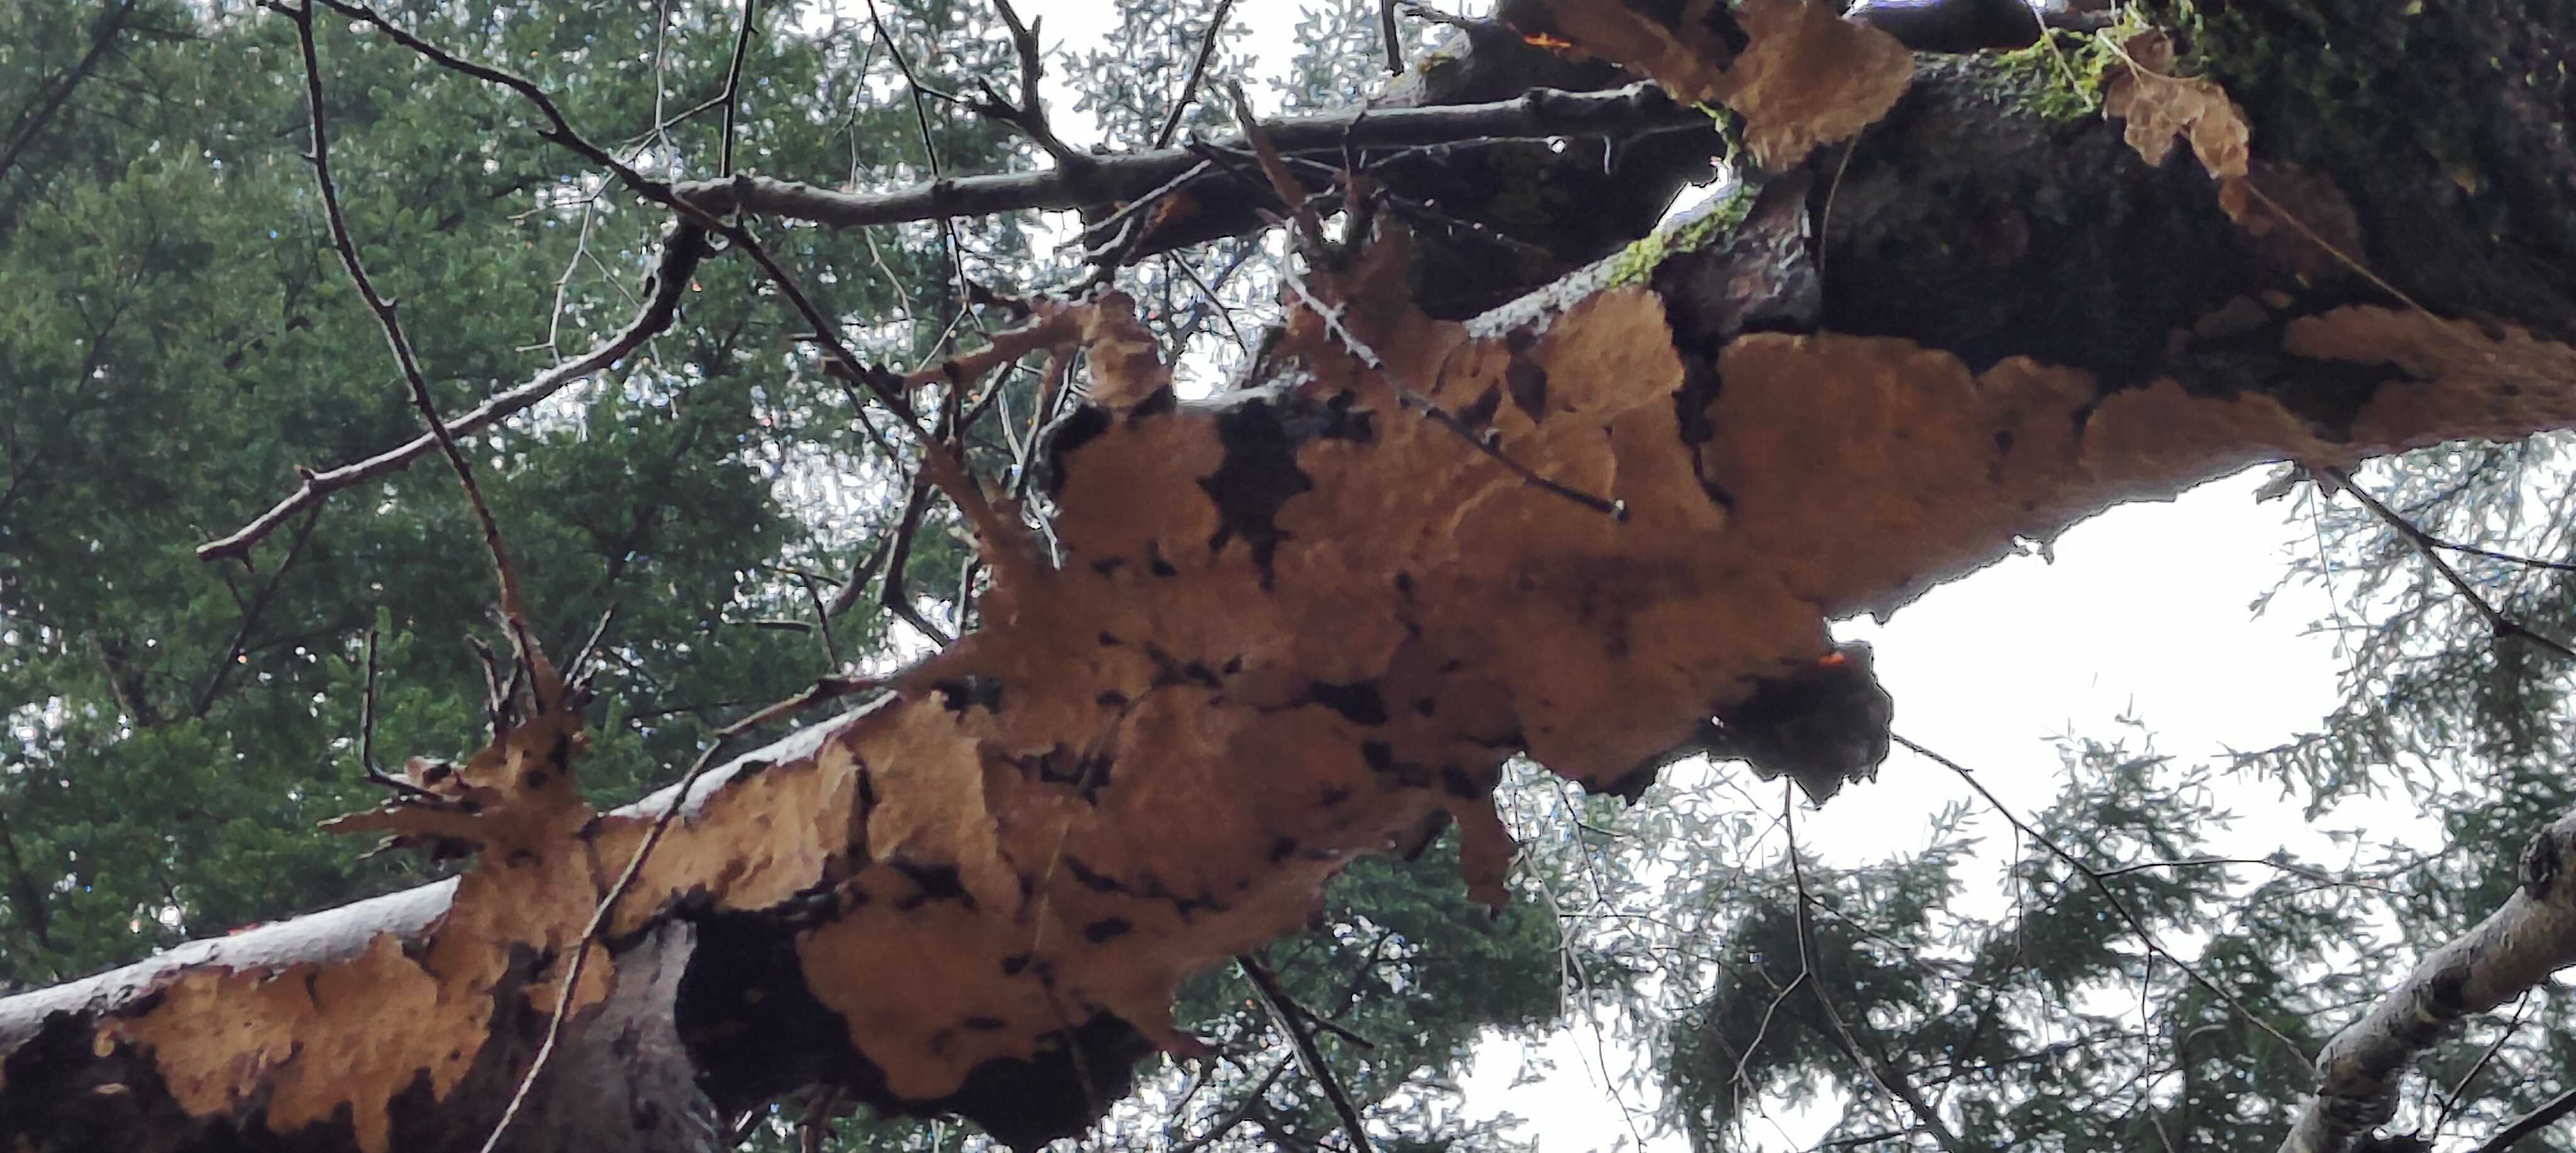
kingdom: Fungi
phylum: Basidiomycota
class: Agaricomycetes
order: Russulales
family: Stereaceae
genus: Stereum
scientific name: Stereum rugosum
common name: rynket lædersvamp
